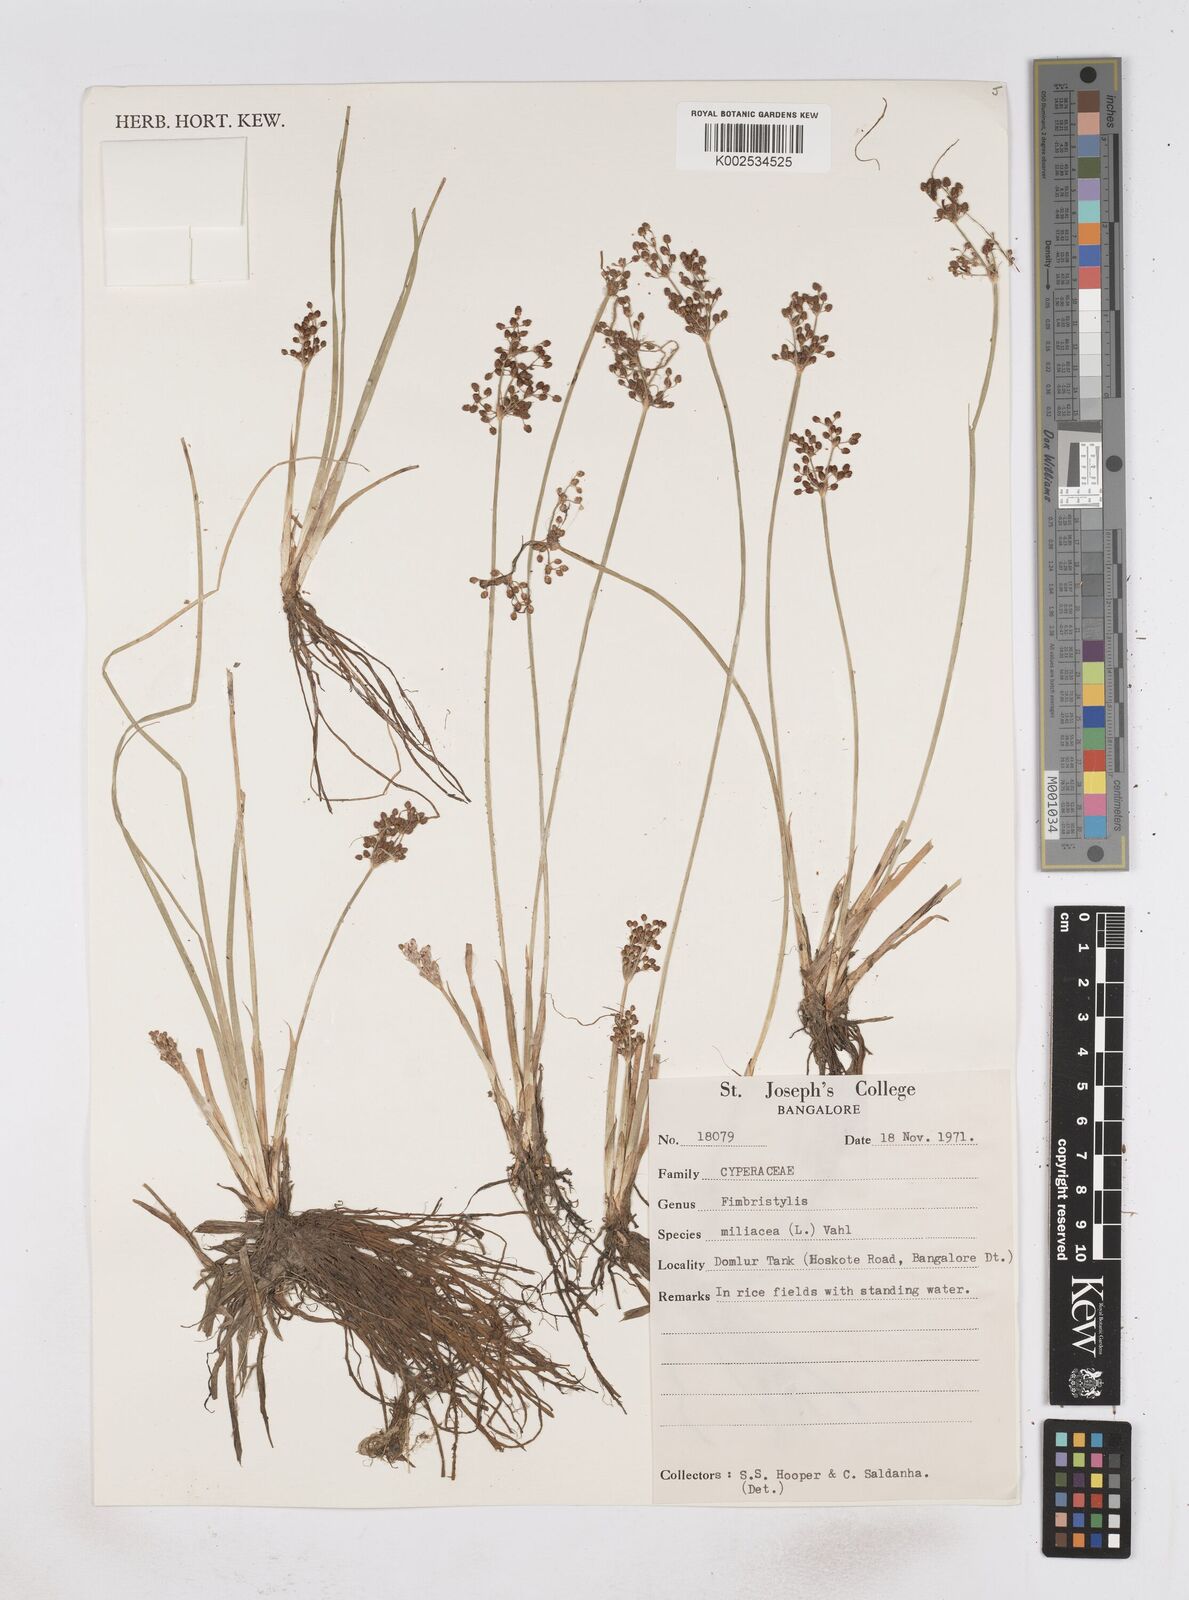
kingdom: Plantae
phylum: Tracheophyta
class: Liliopsida
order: Poales
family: Cyperaceae
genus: Fimbristylis
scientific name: Fimbristylis quinquangularis
